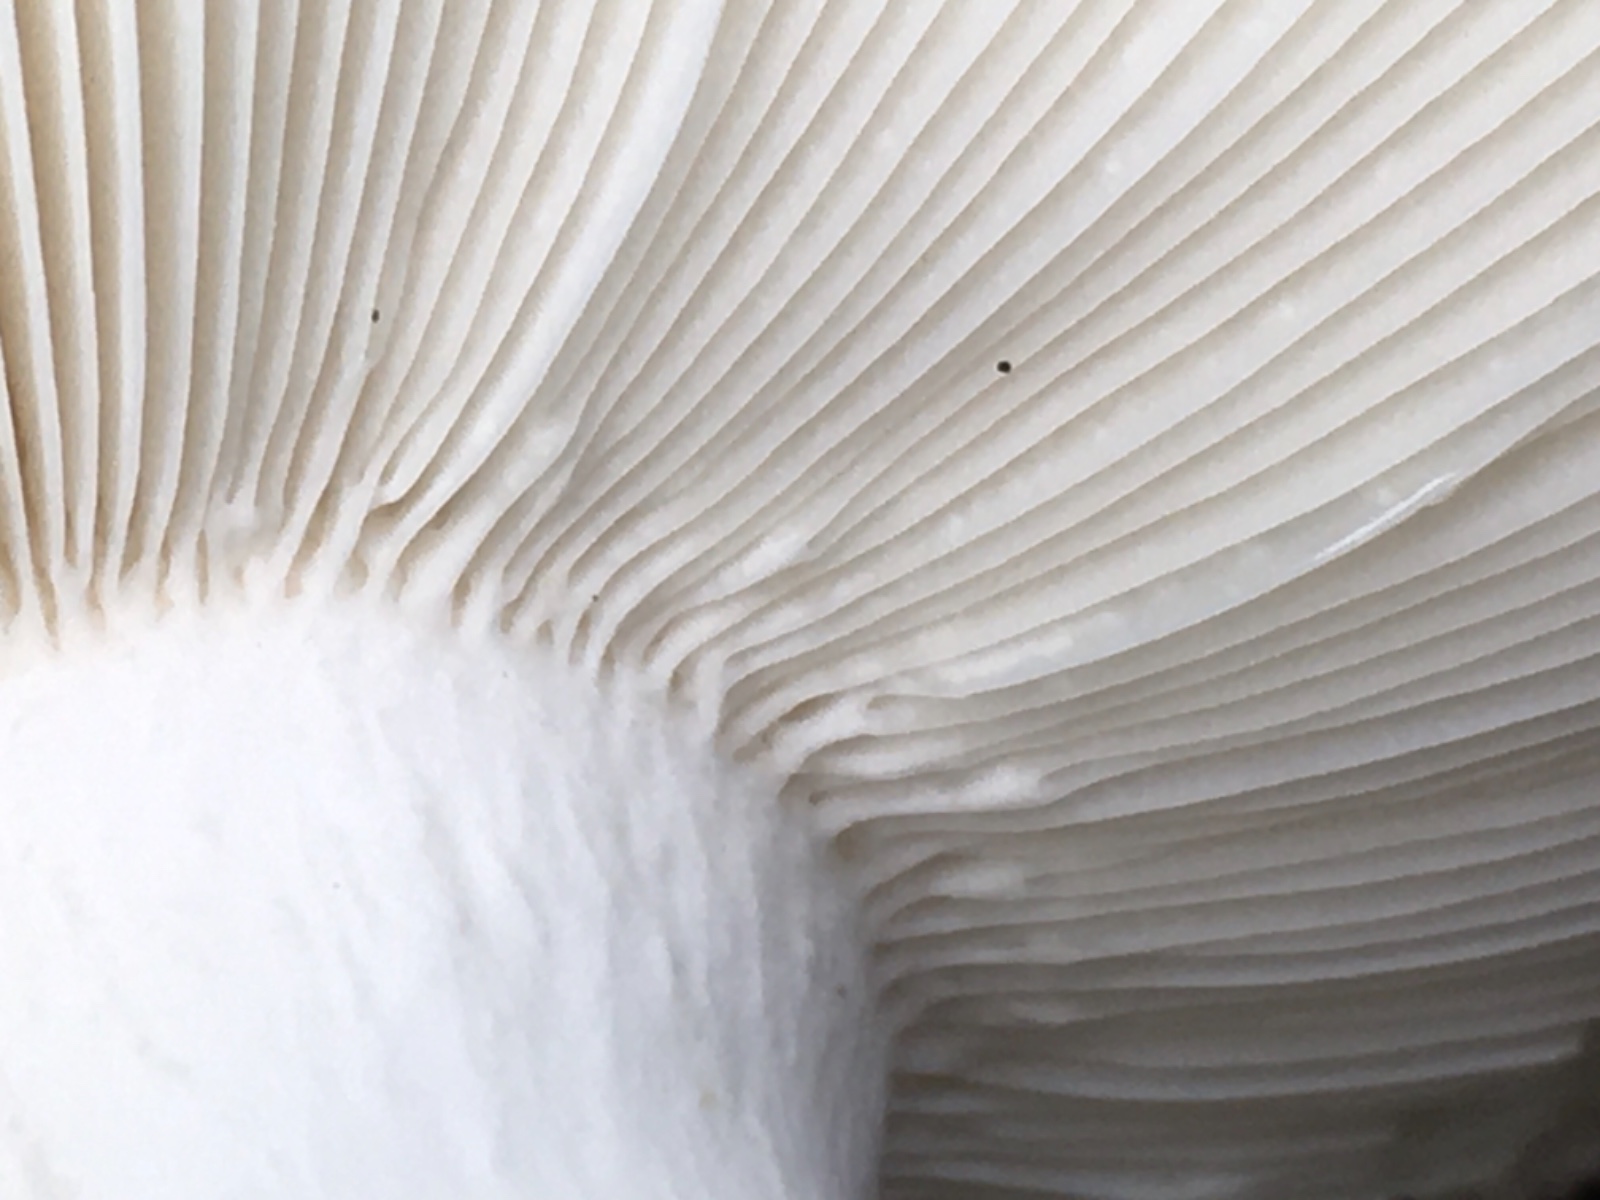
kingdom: Fungi
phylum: Basidiomycota
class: Agaricomycetes
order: Russulales
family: Russulaceae
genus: Russula
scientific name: Russula heterophylla
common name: gaffelbladet skørhat
